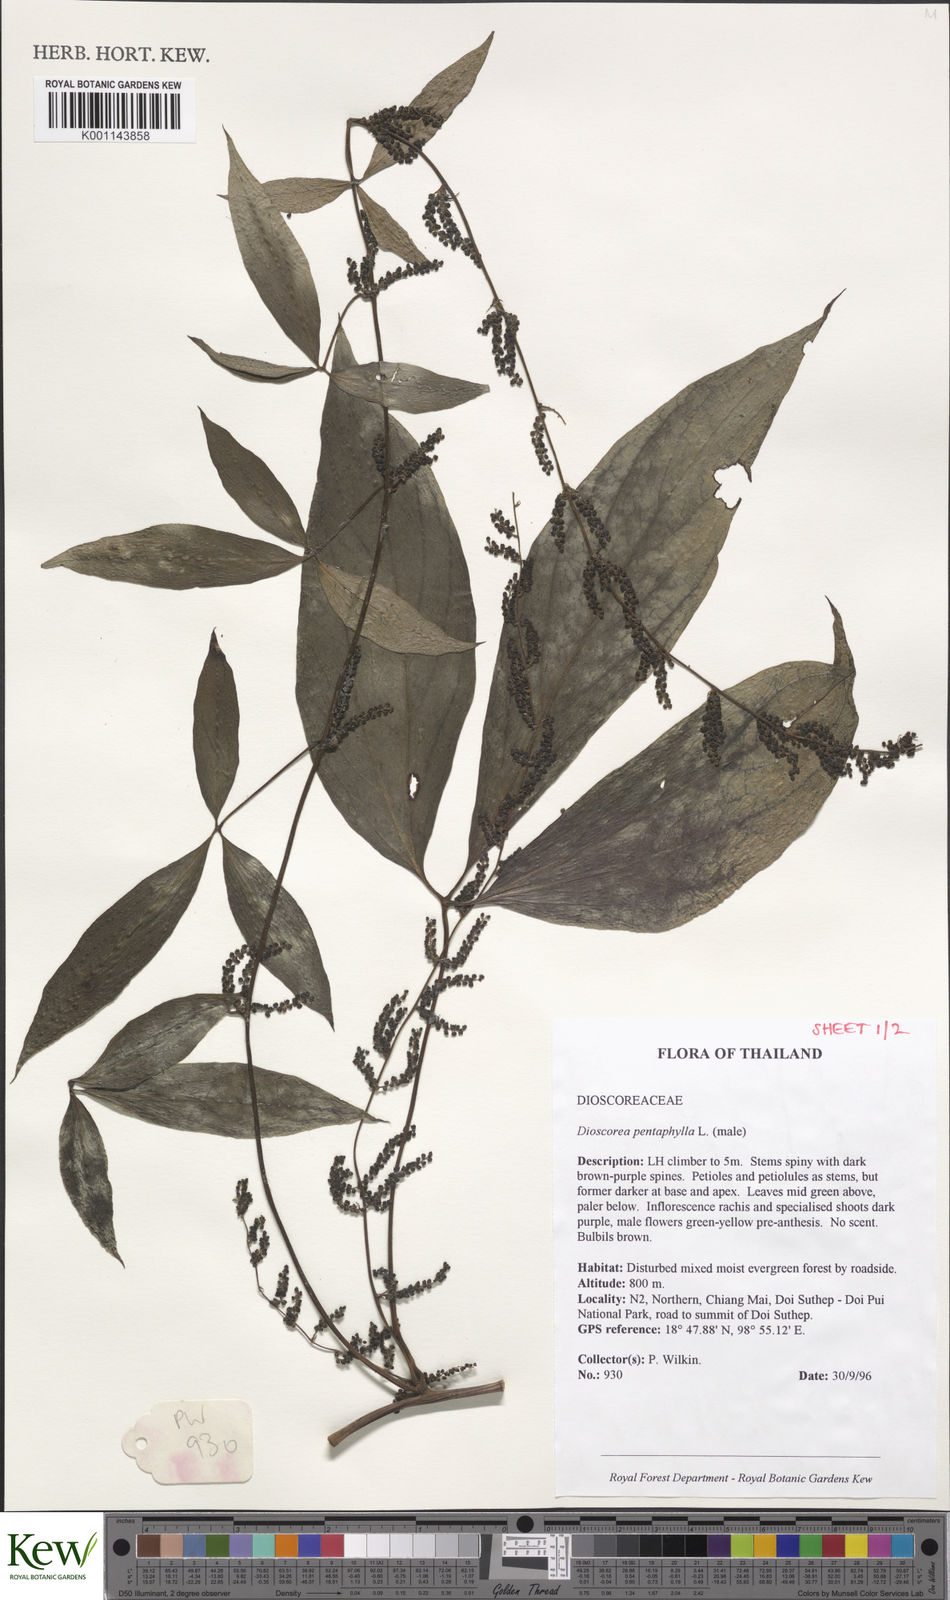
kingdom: Plantae
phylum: Tracheophyta
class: Liliopsida
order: Dioscoreales
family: Dioscoreaceae
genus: Dioscorea
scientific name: Dioscorea pentaphylla
